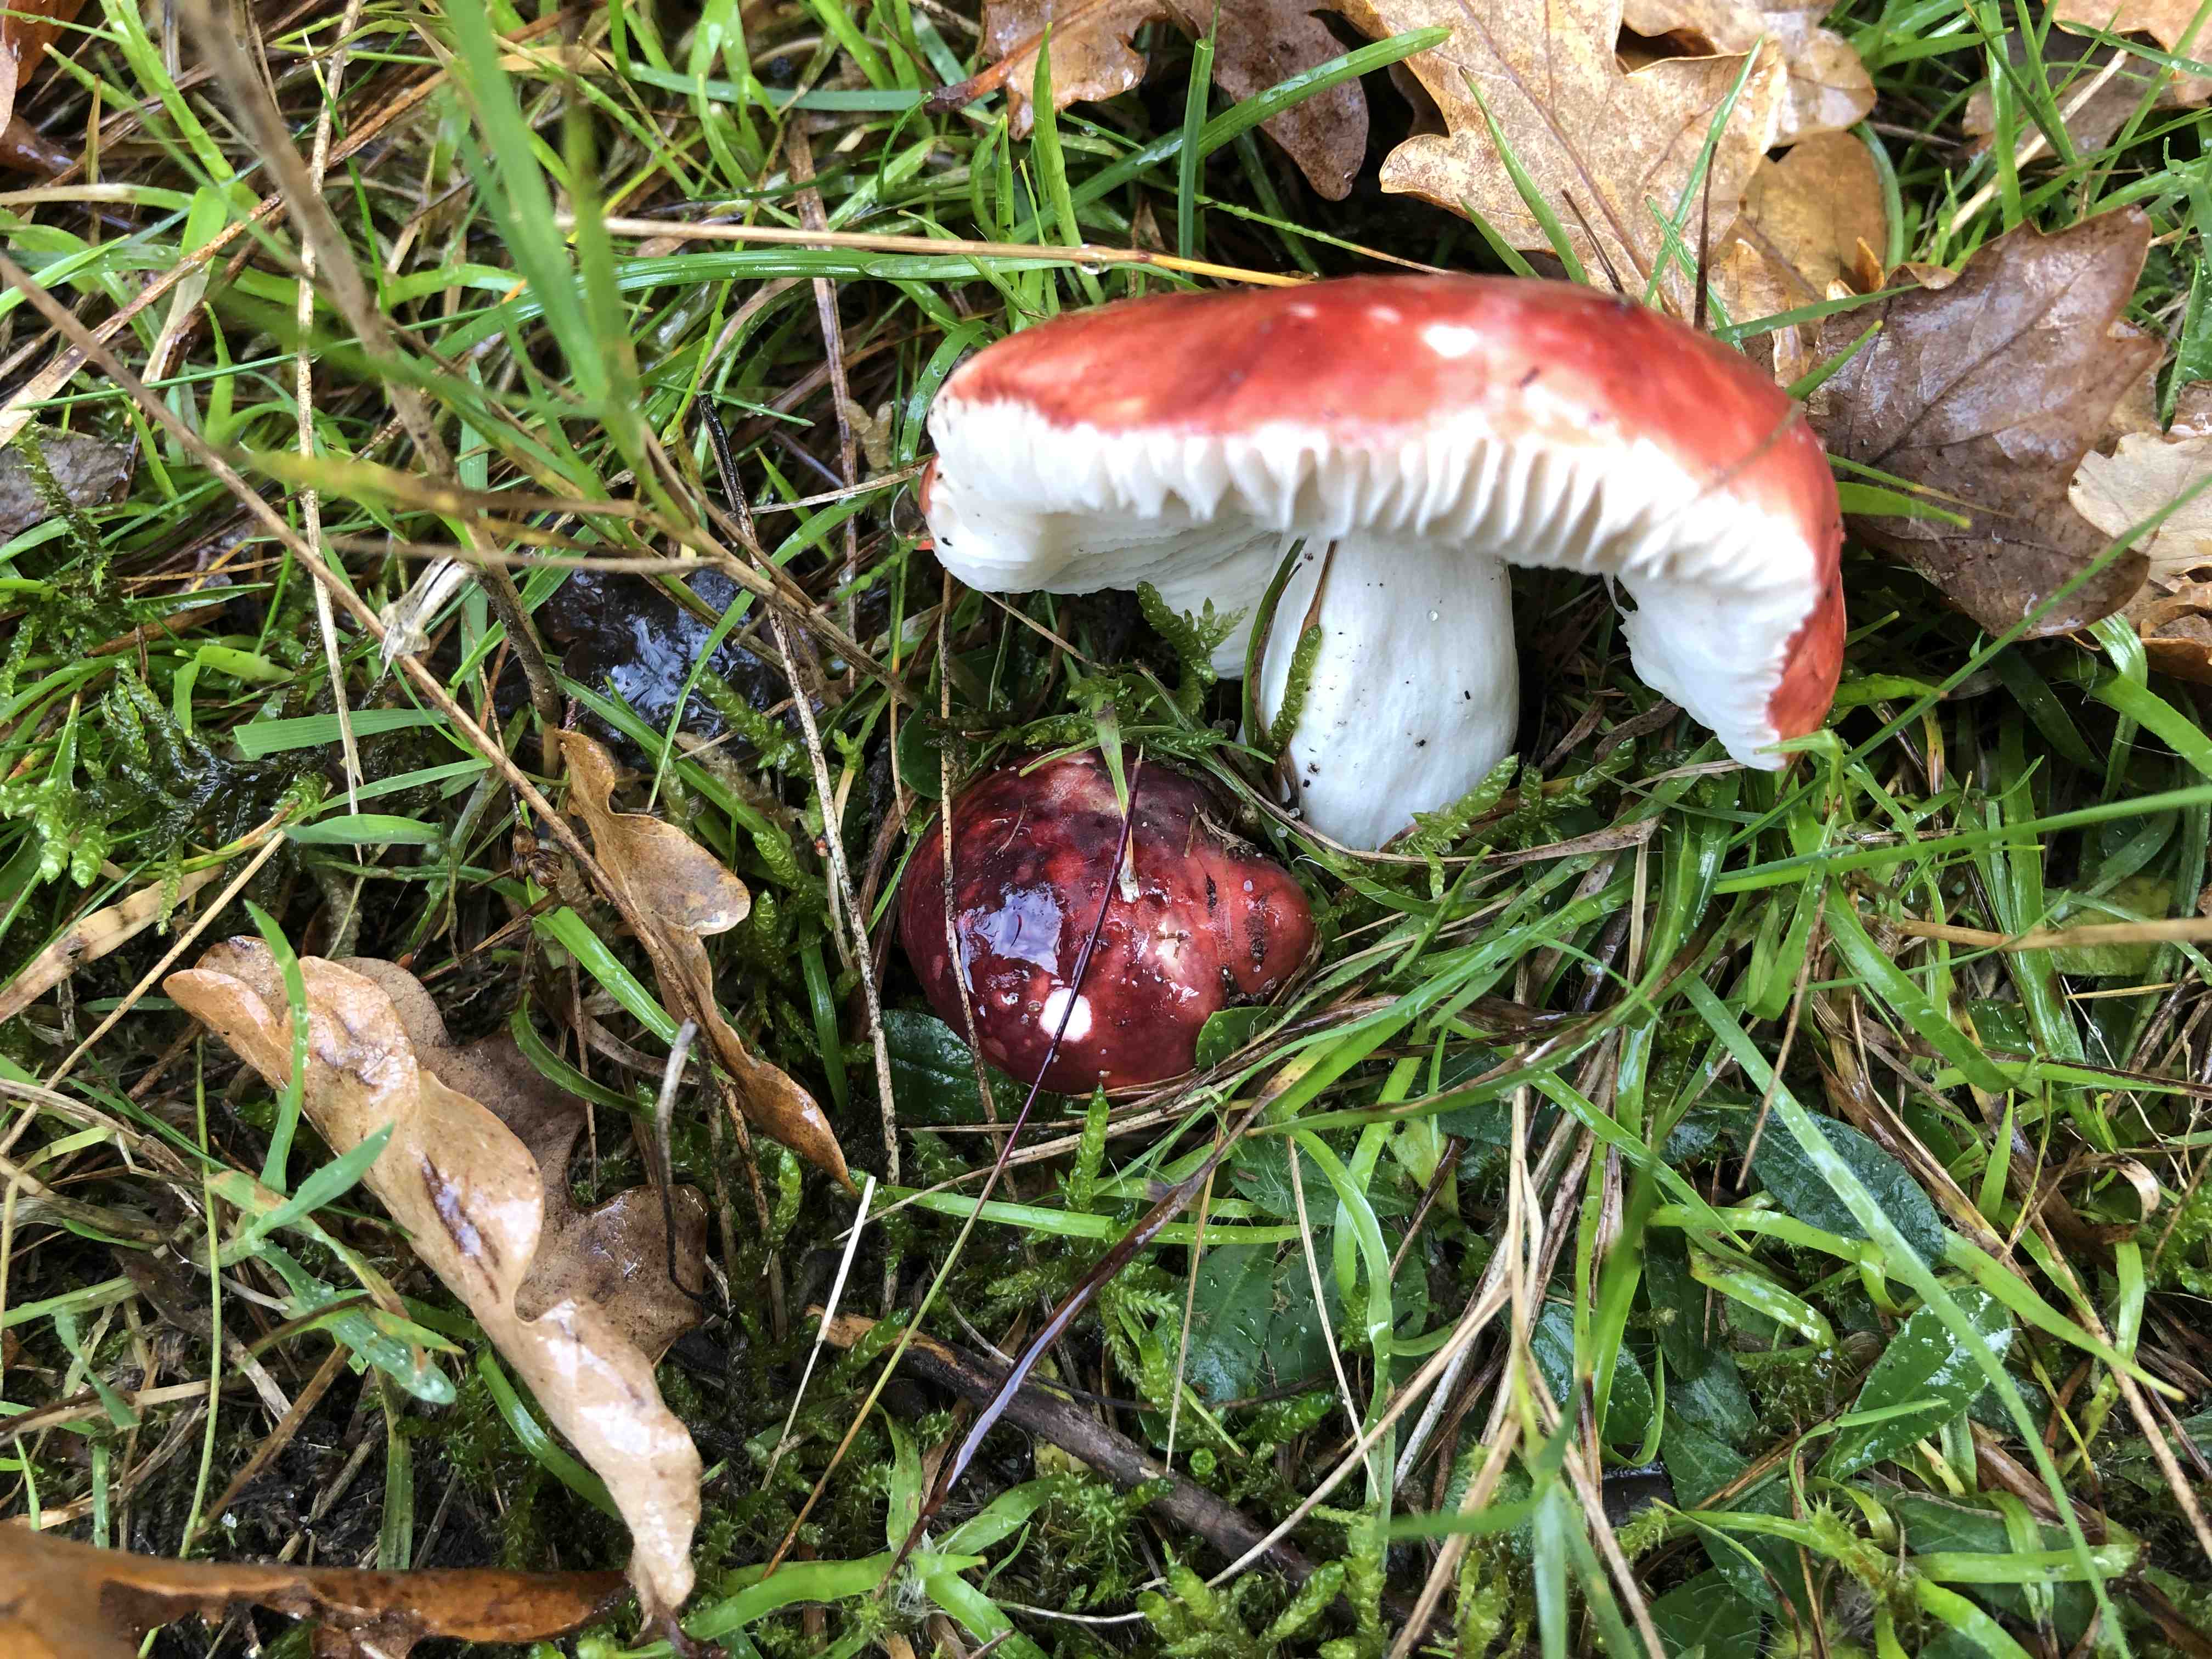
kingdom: Fungi
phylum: Basidiomycota
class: Agaricomycetes
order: Russulales
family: Russulaceae
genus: Russula
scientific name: Russula
